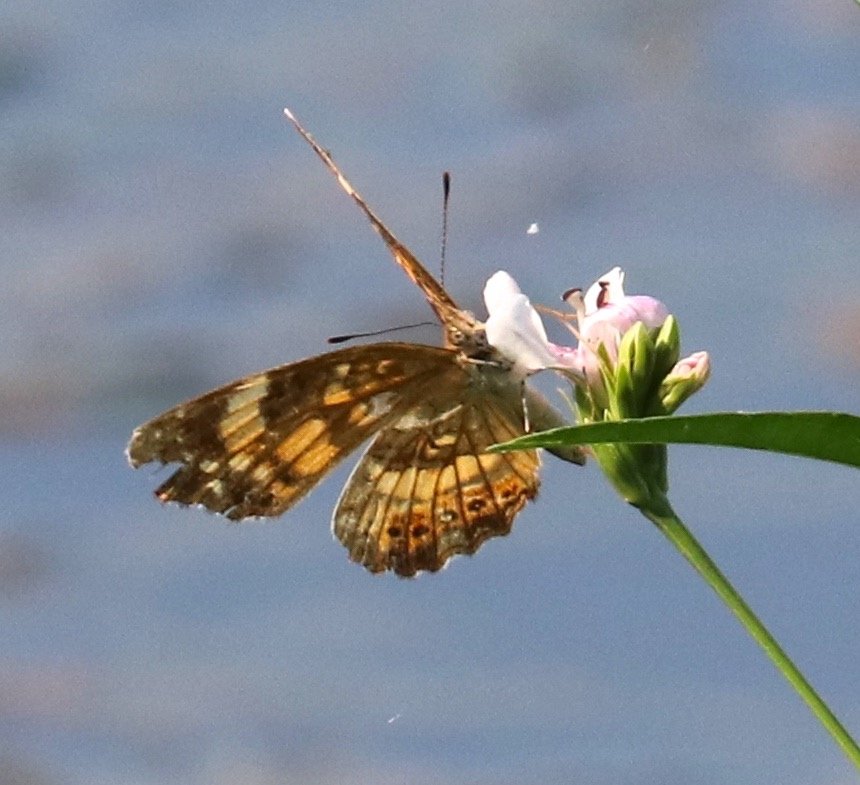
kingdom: Animalia
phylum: Arthropoda
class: Insecta
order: Lepidoptera
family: Nymphalidae
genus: Chlosyne
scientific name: Chlosyne nycteis
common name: Silvery Checkerspot
